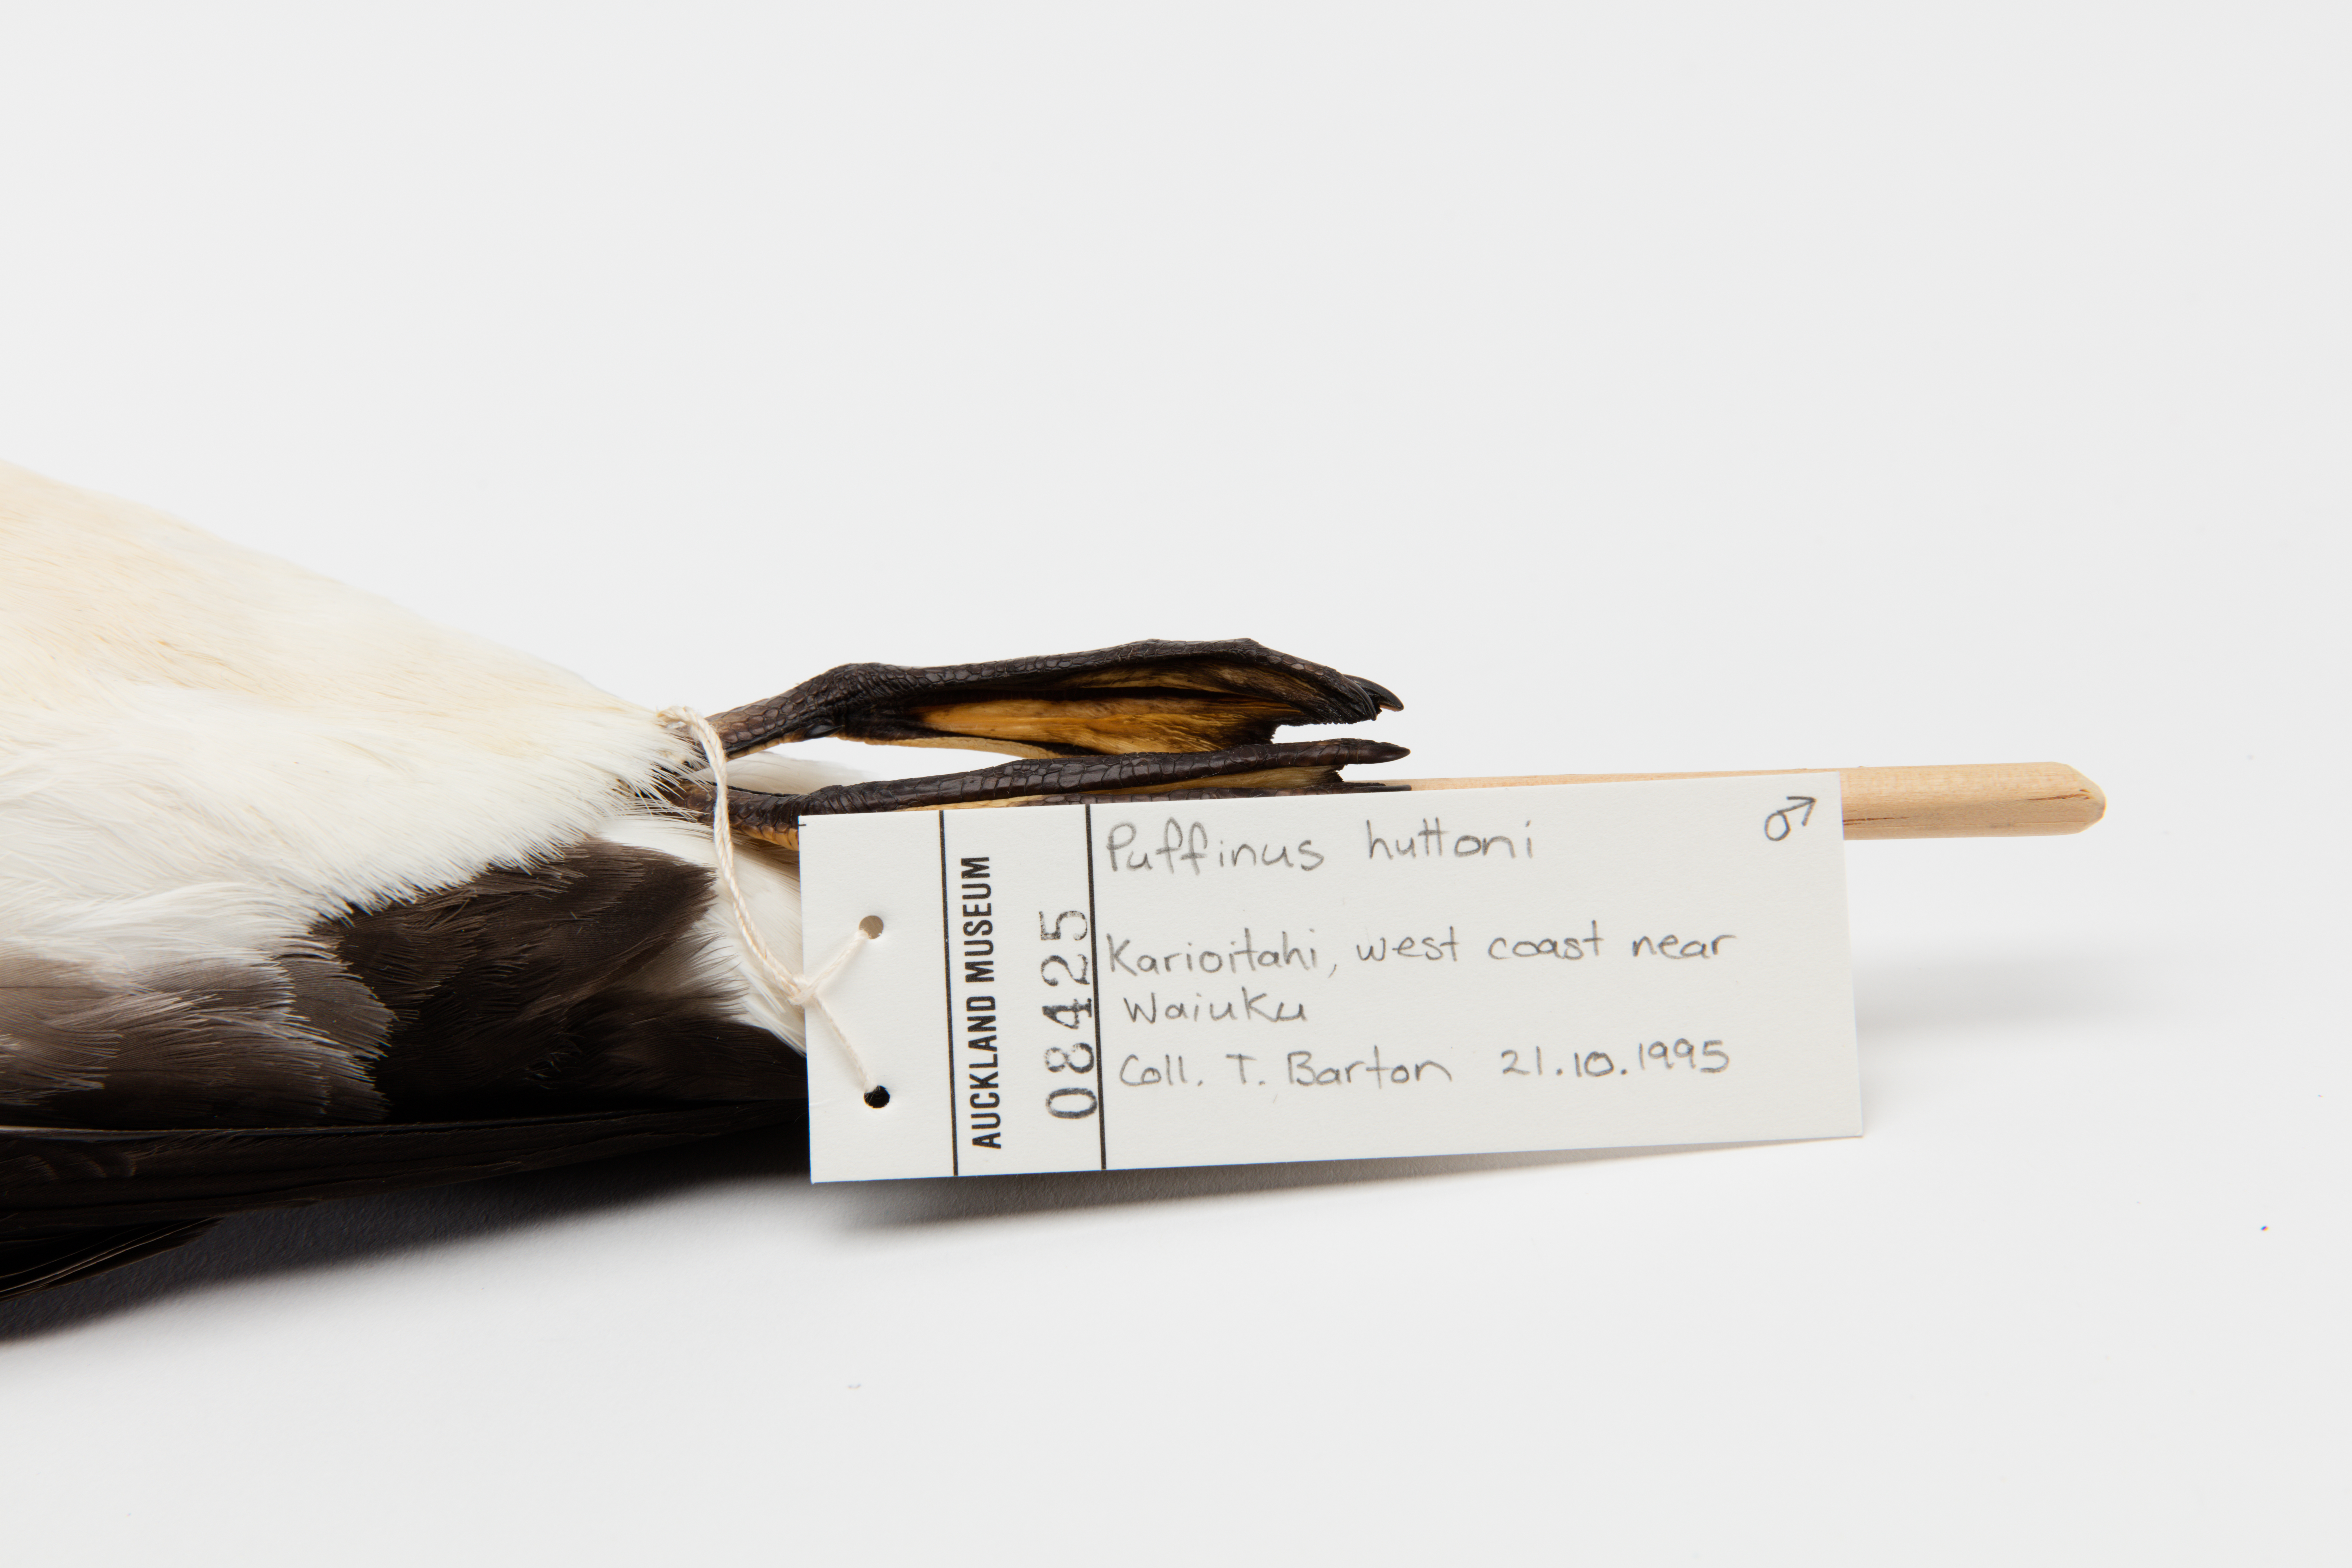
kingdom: Animalia
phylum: Chordata
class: Aves
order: Procellariiformes
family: Procellariidae
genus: Puffinus
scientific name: Puffinus huttoni
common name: Hutton's shearwater
